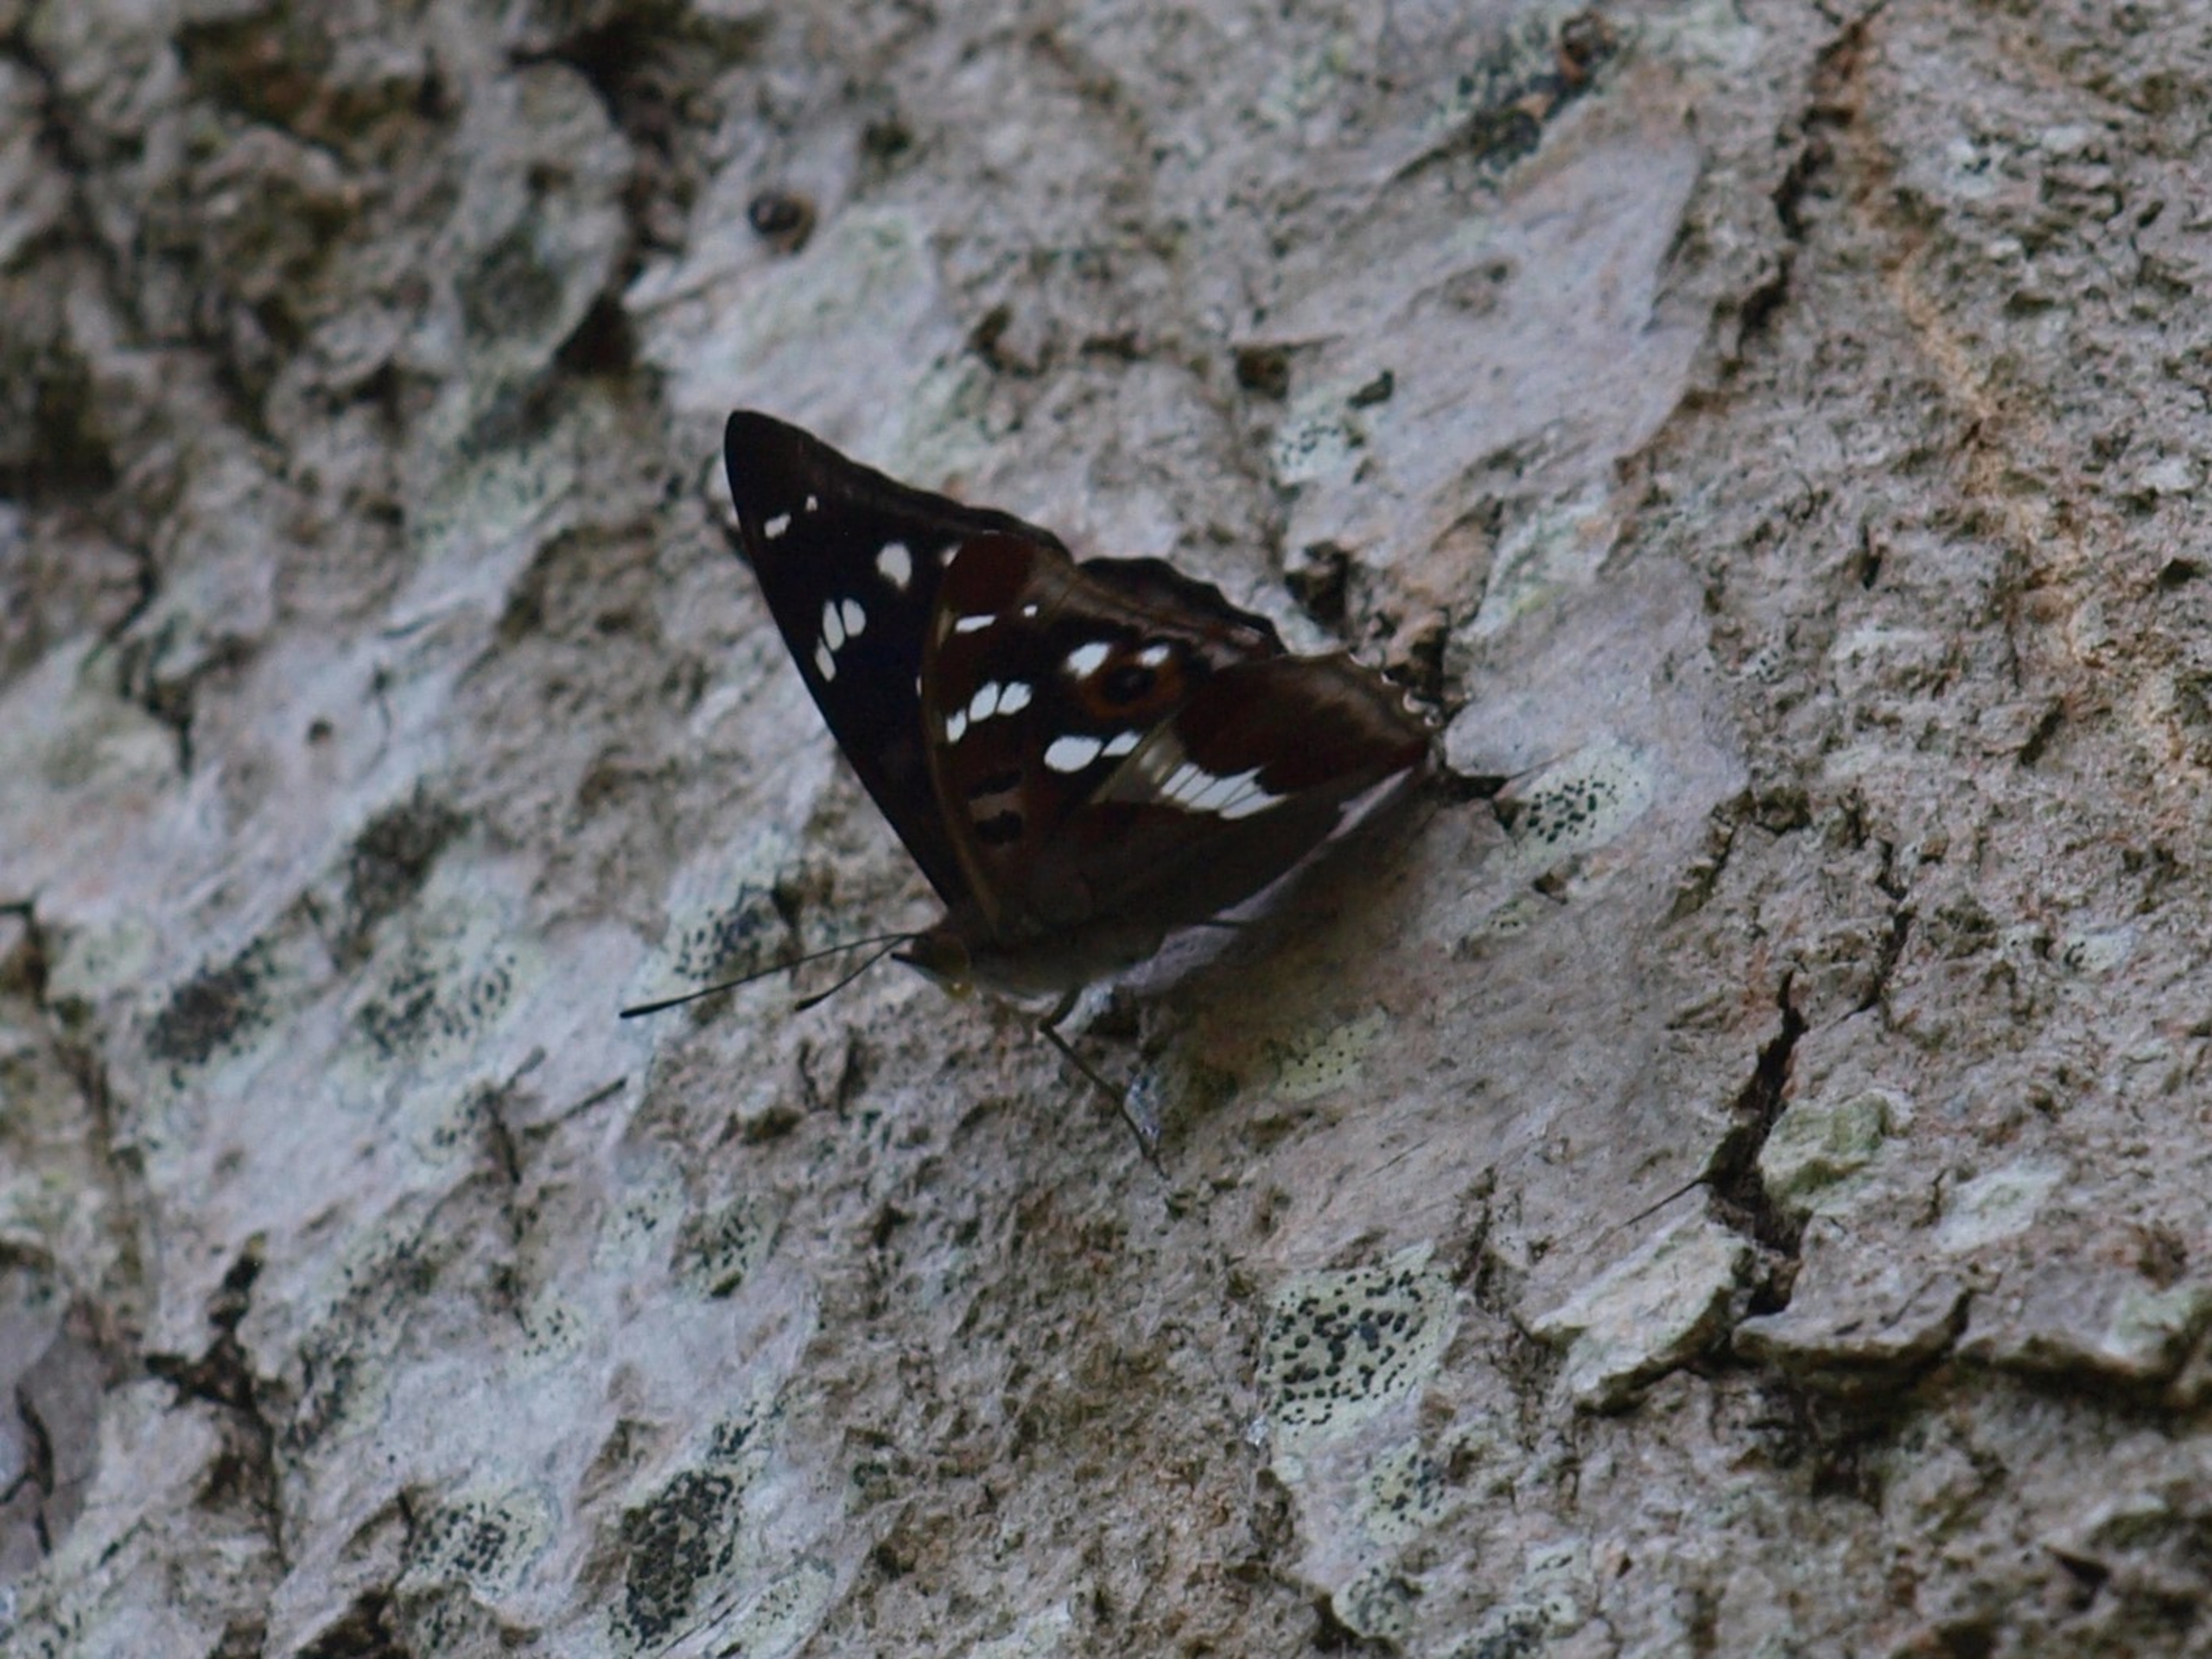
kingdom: Animalia
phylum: Arthropoda
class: Insecta
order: Lepidoptera
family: Nymphalidae
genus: Apatura
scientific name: Apatura iris
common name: Iris
